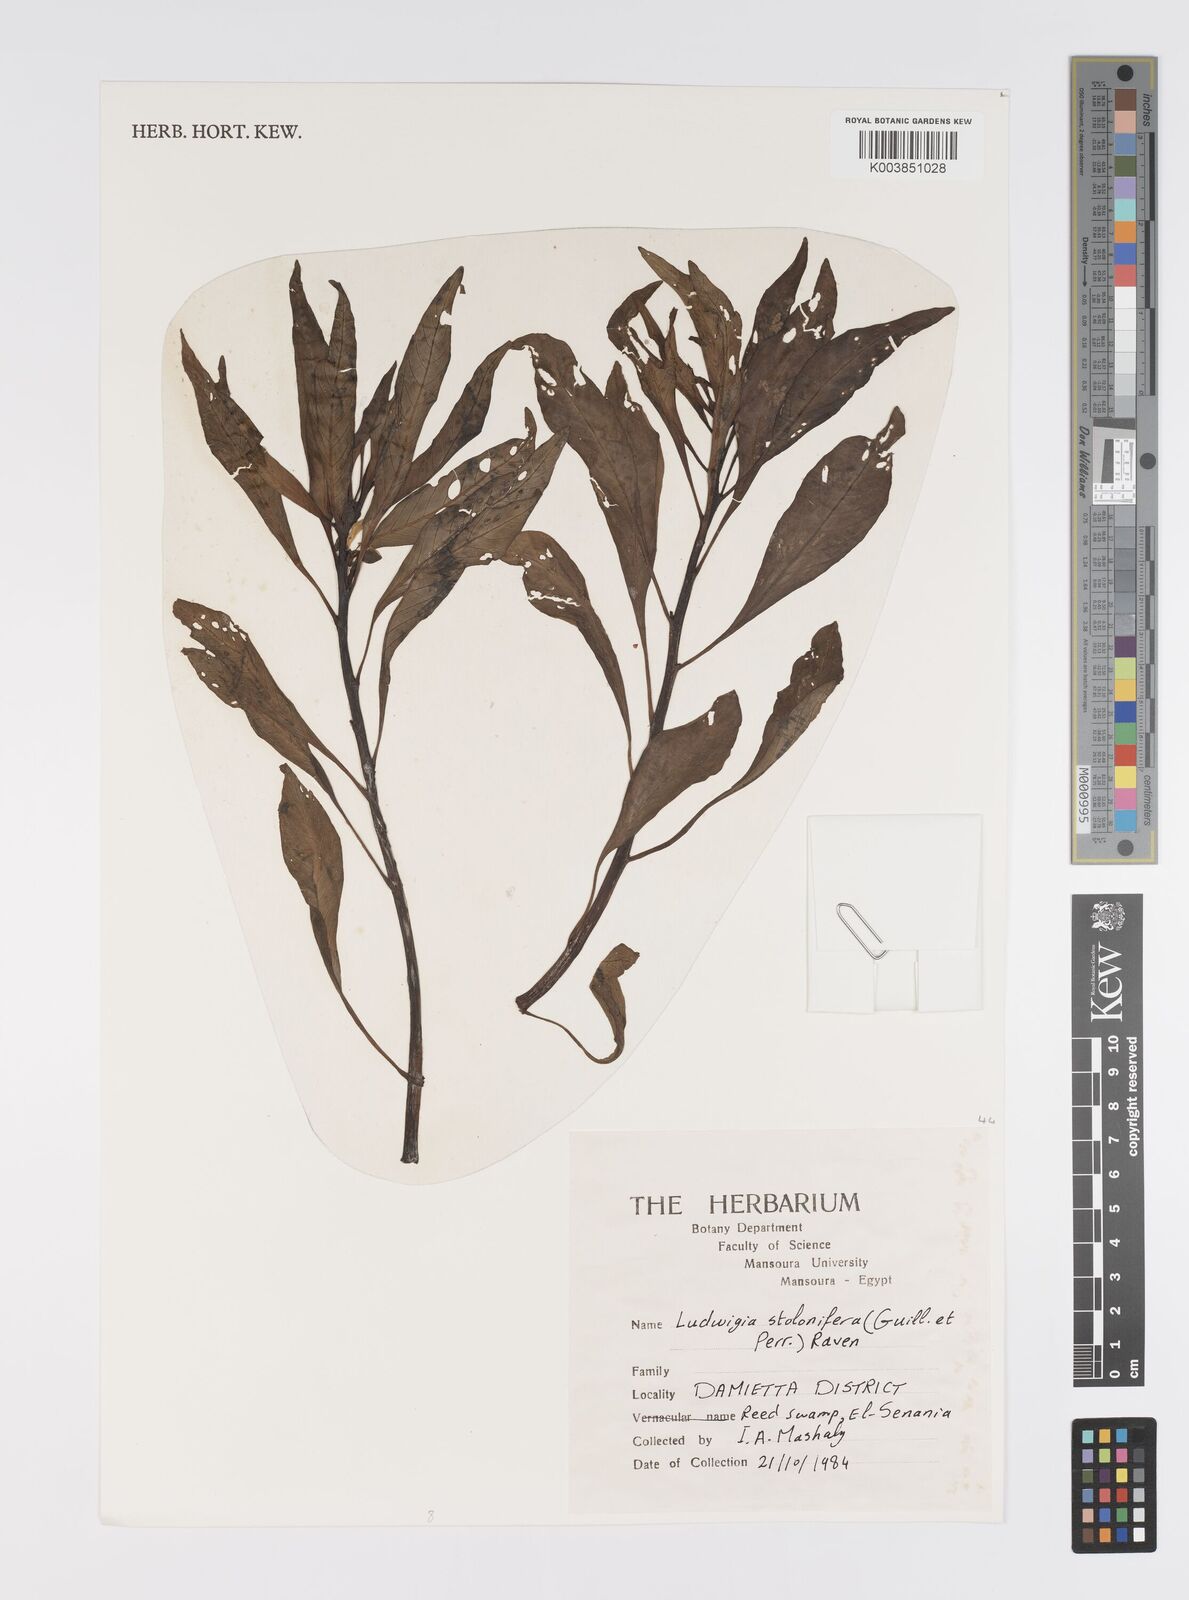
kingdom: Plantae
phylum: Tracheophyta
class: Magnoliopsida
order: Myrtales
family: Onagraceae
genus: Ludwigia
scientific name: Ludwigia adscendens
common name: Creeping water primrose
